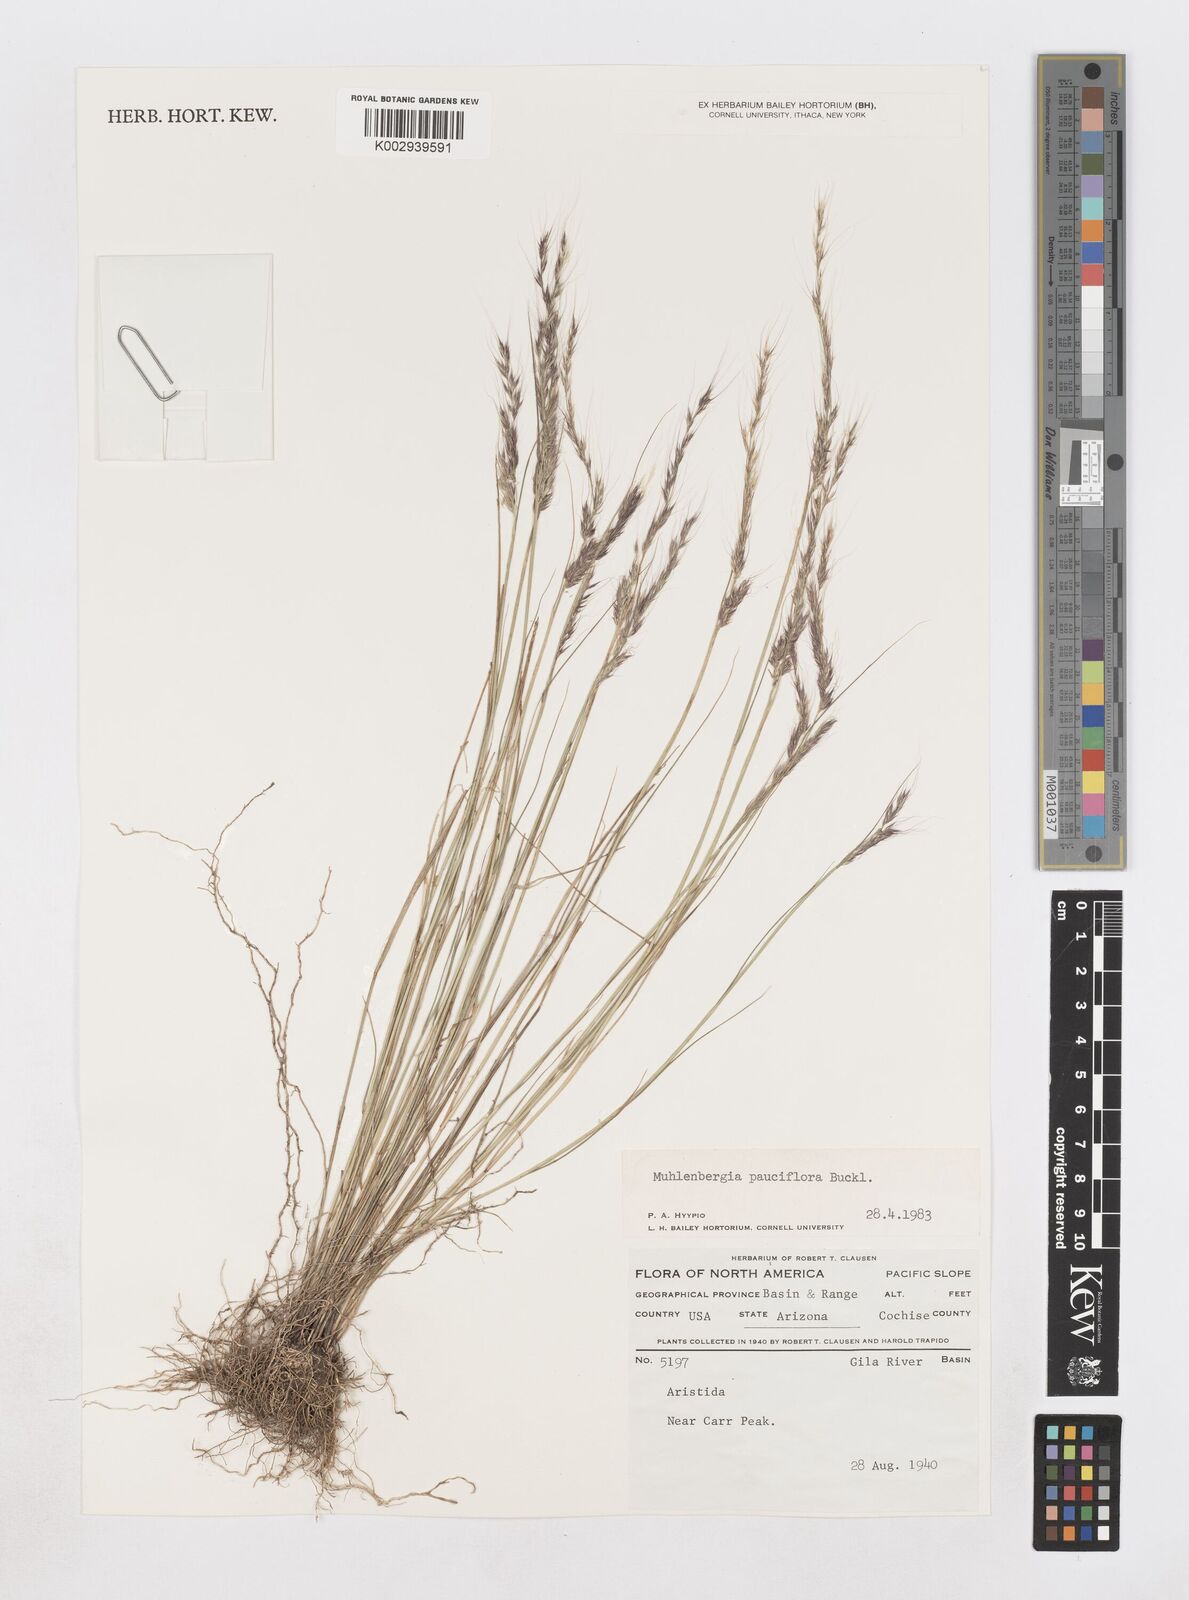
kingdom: Plantae
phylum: Tracheophyta
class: Liliopsida
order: Poales
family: Poaceae
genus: Muhlenbergia
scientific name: Muhlenbergia pauciflora
